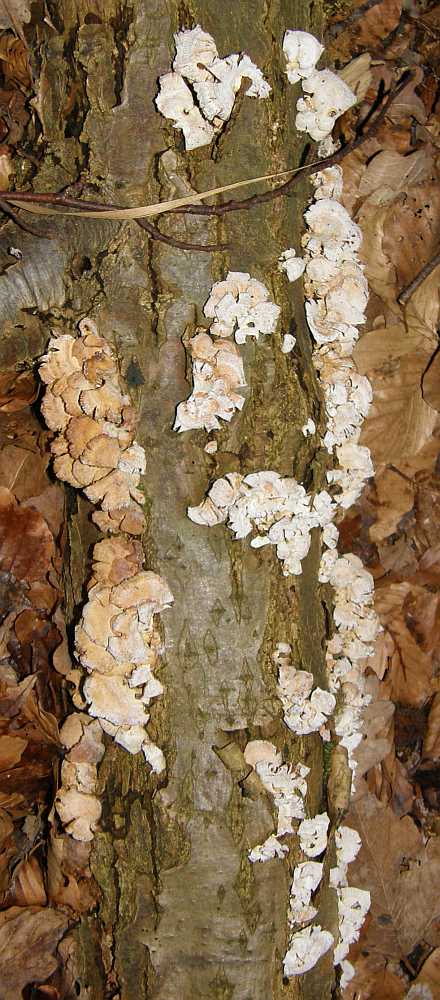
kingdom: Fungi
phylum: Basidiomycota
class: Agaricomycetes
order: Agaricales
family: Mycenaceae
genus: Panellus
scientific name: Panellus stipticus
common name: kliddet epaulethat
